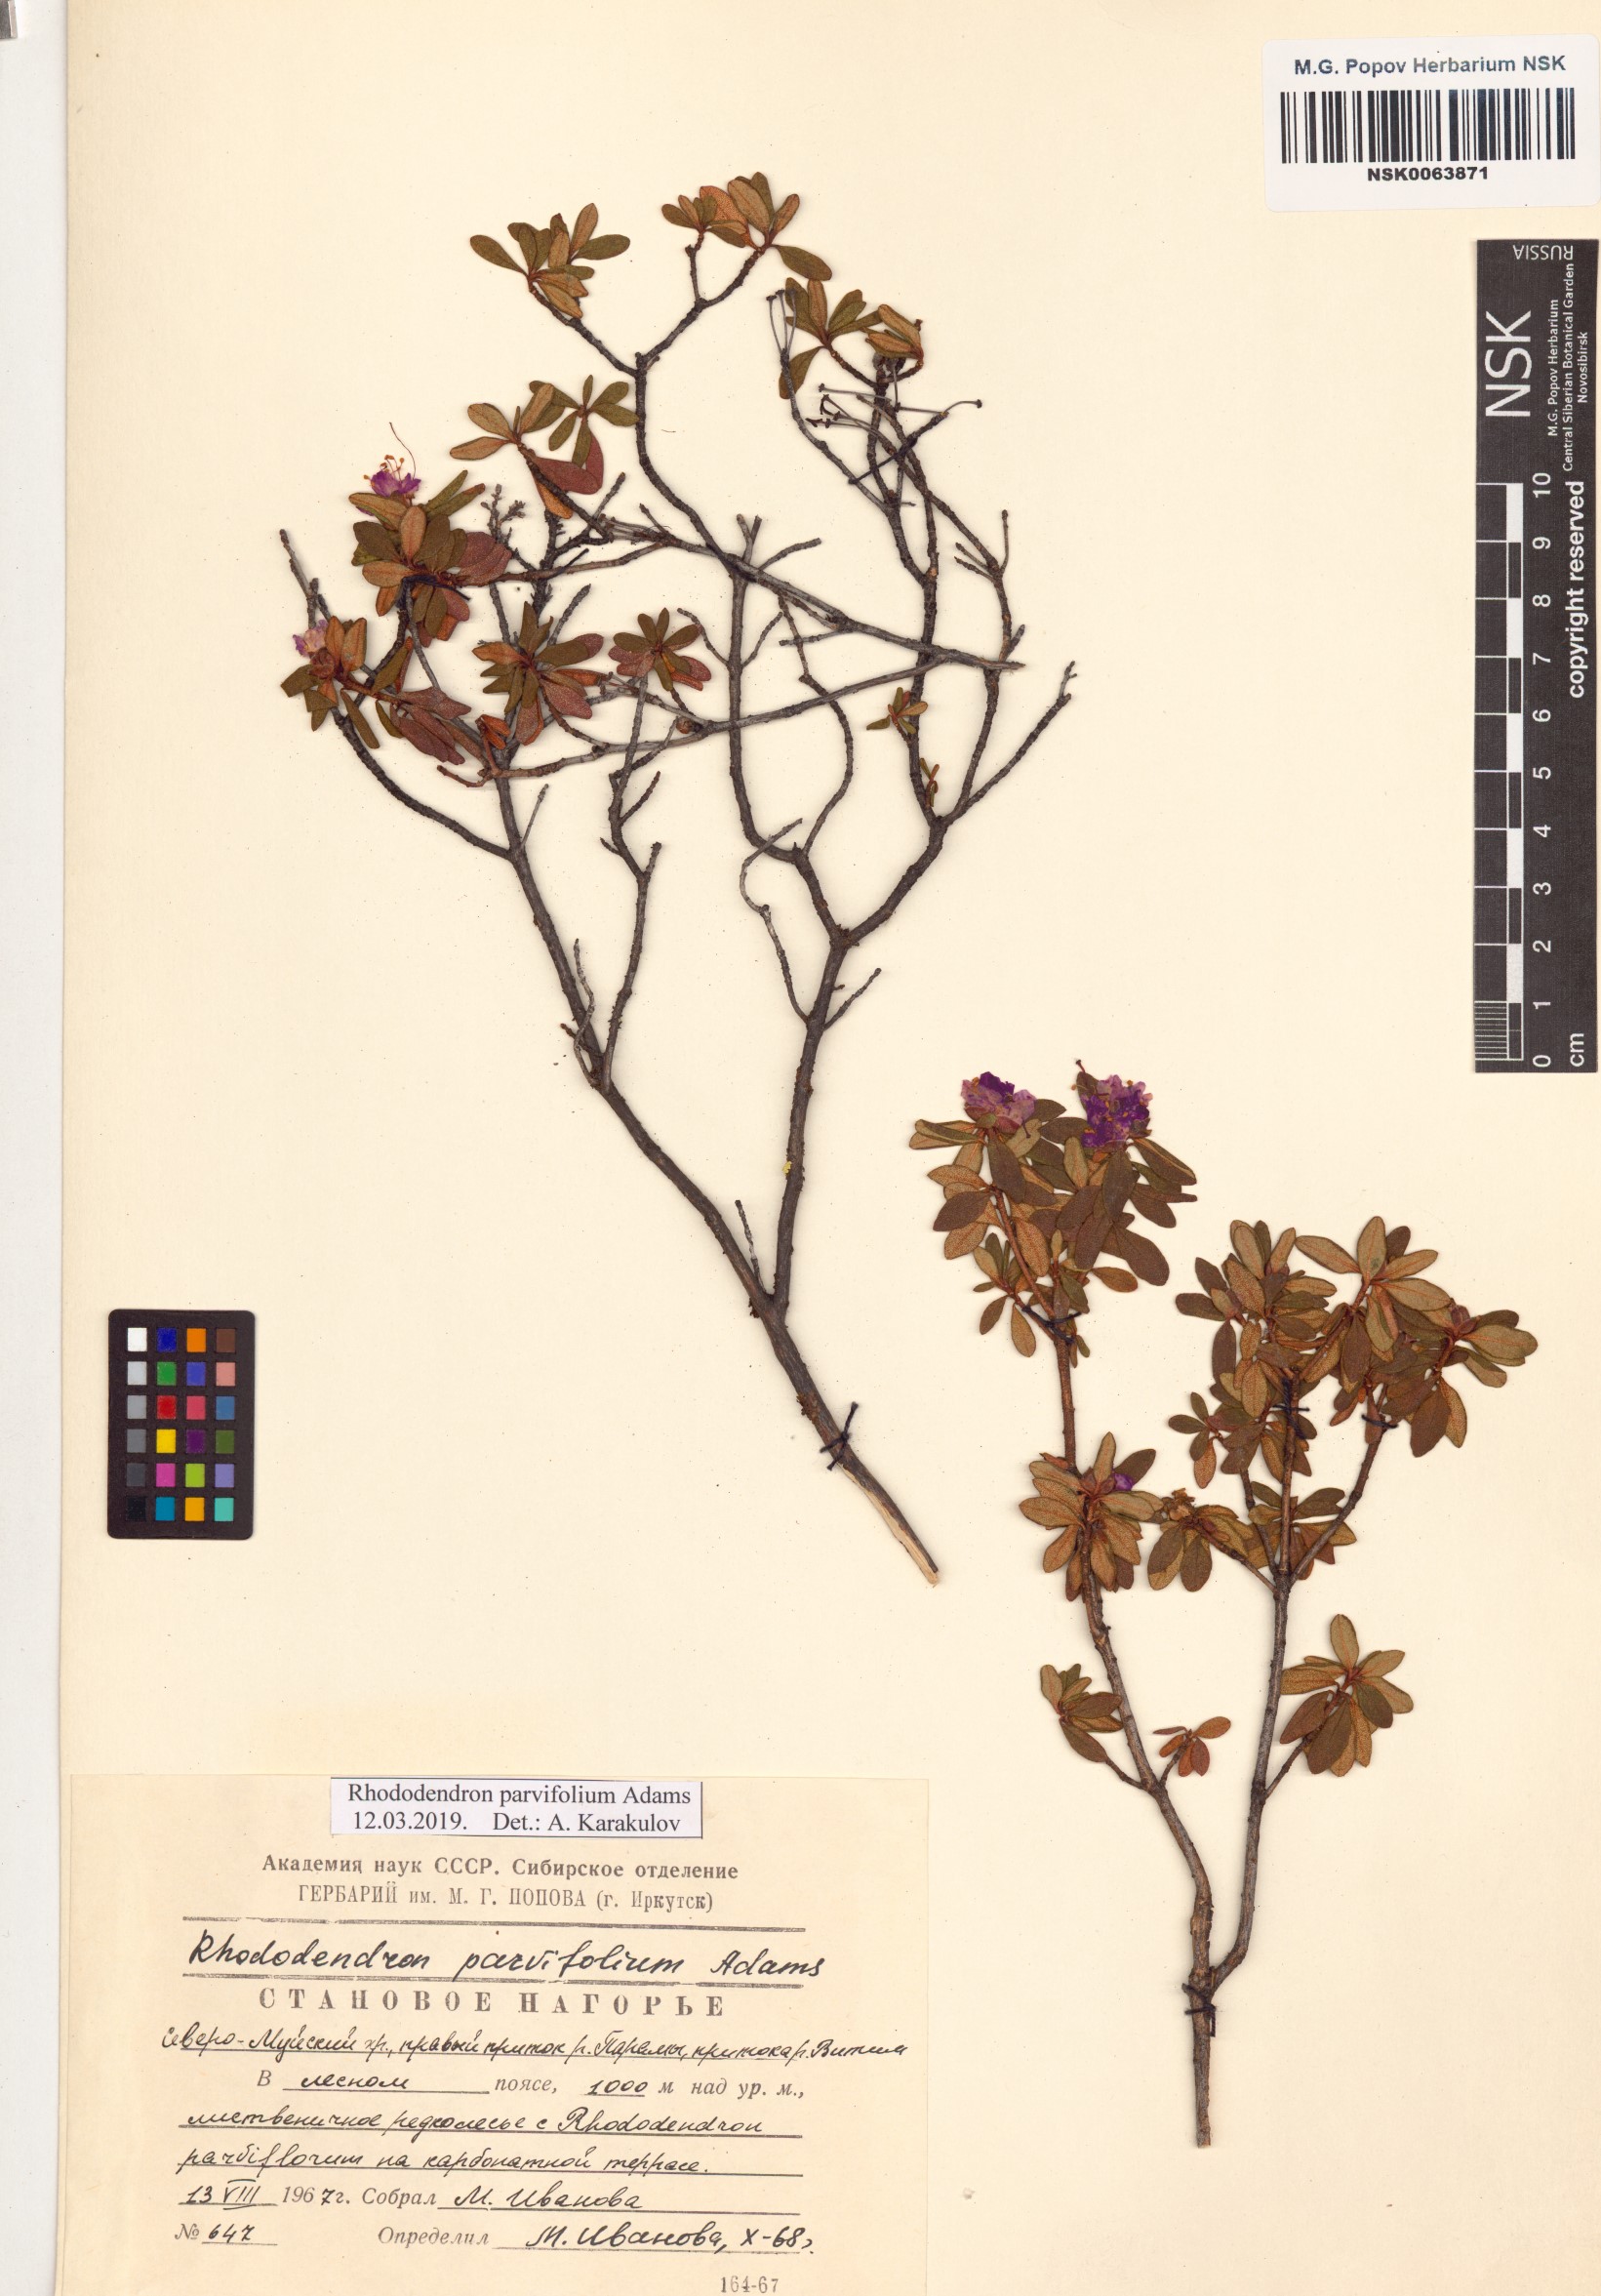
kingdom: Plantae
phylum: Tracheophyta
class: Magnoliopsida
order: Ericales
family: Ericaceae
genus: Rhododendron
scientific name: Rhododendron parvifolium
